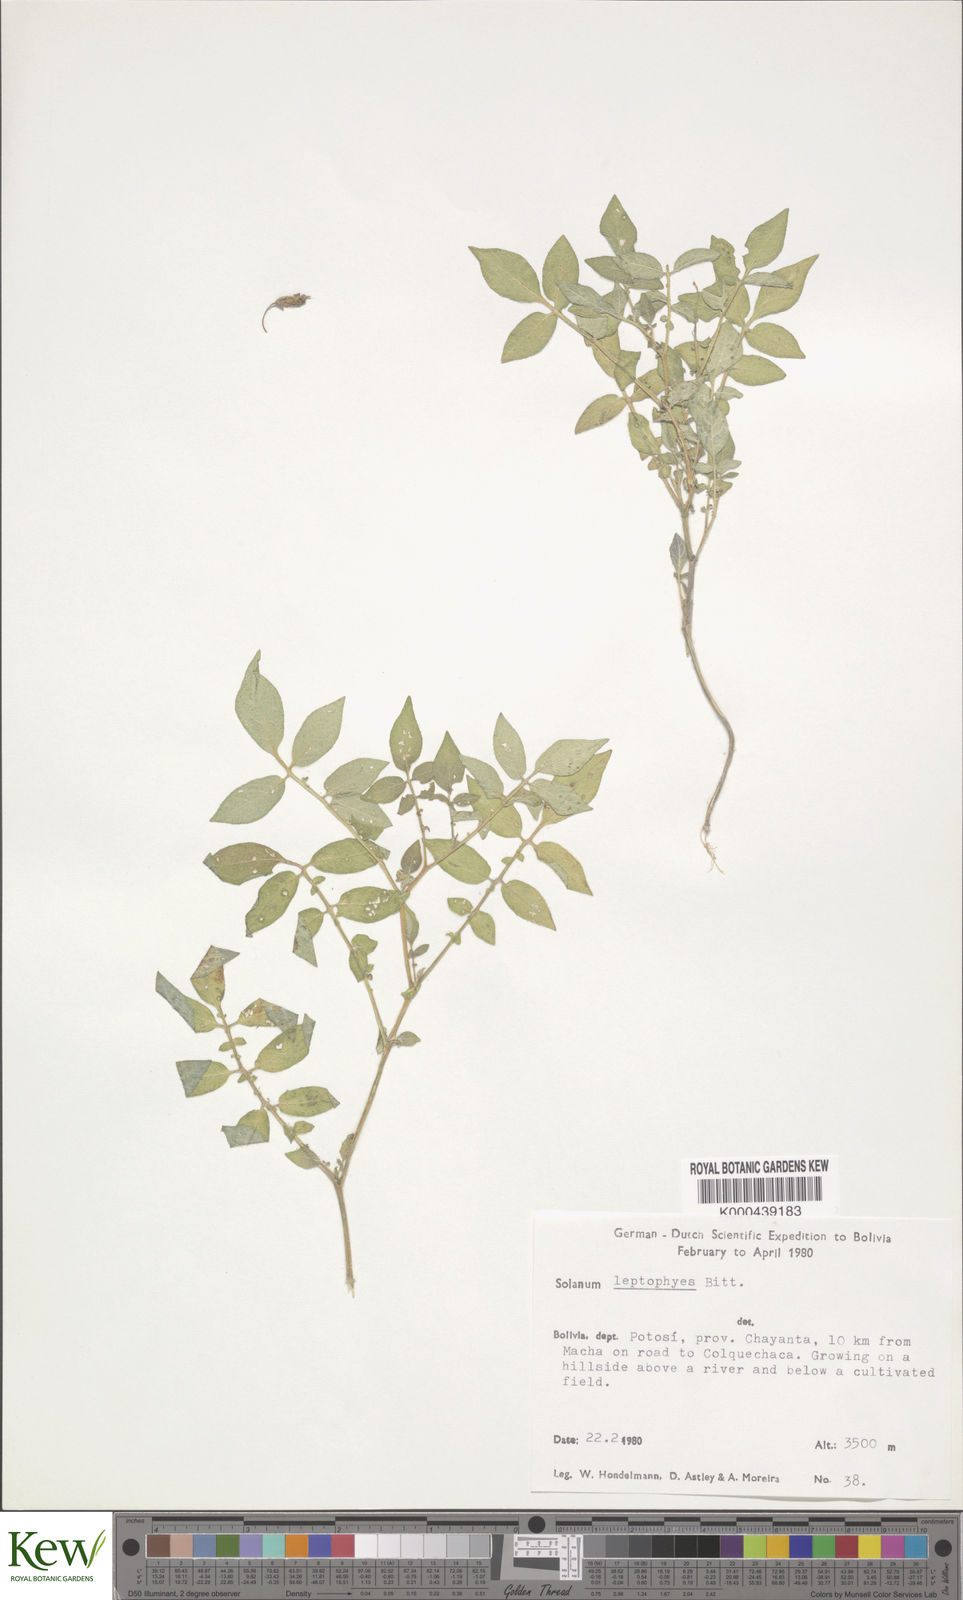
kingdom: Plantae
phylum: Tracheophyta
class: Magnoliopsida
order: Solanales
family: Solanaceae
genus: Solanum
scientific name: Solanum brevicaule
